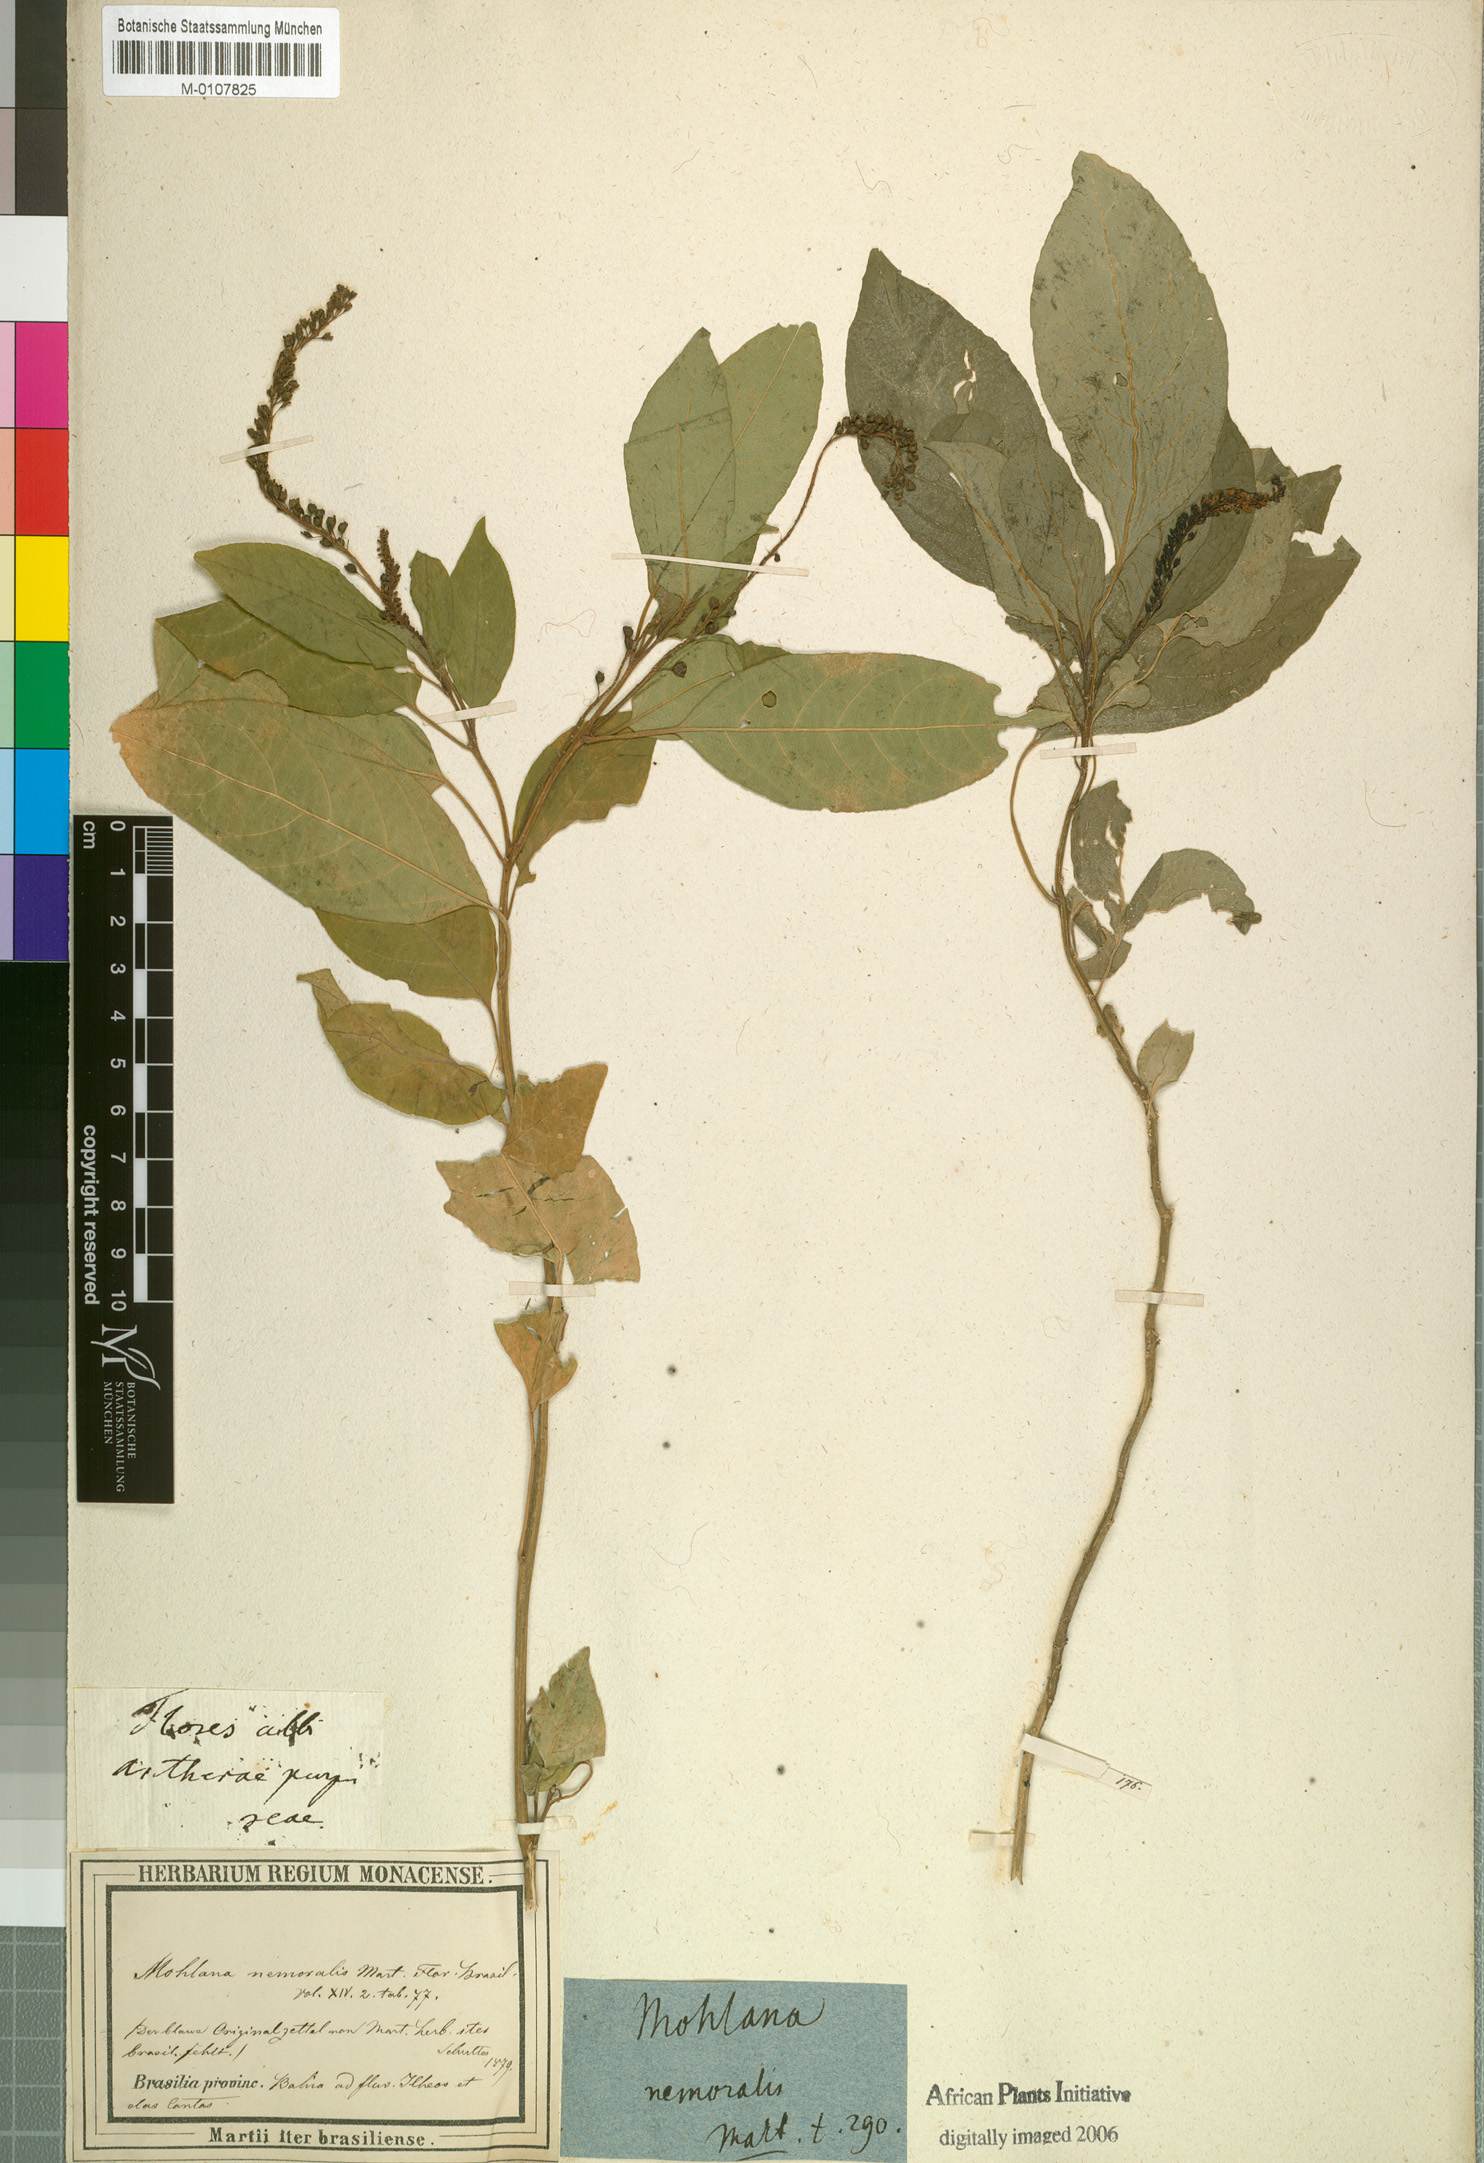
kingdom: Plantae
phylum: Tracheophyta
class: Magnoliopsida
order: Caryophyllales
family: Phytolaccaceae
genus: Hilleria
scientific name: Hilleria latifolia
